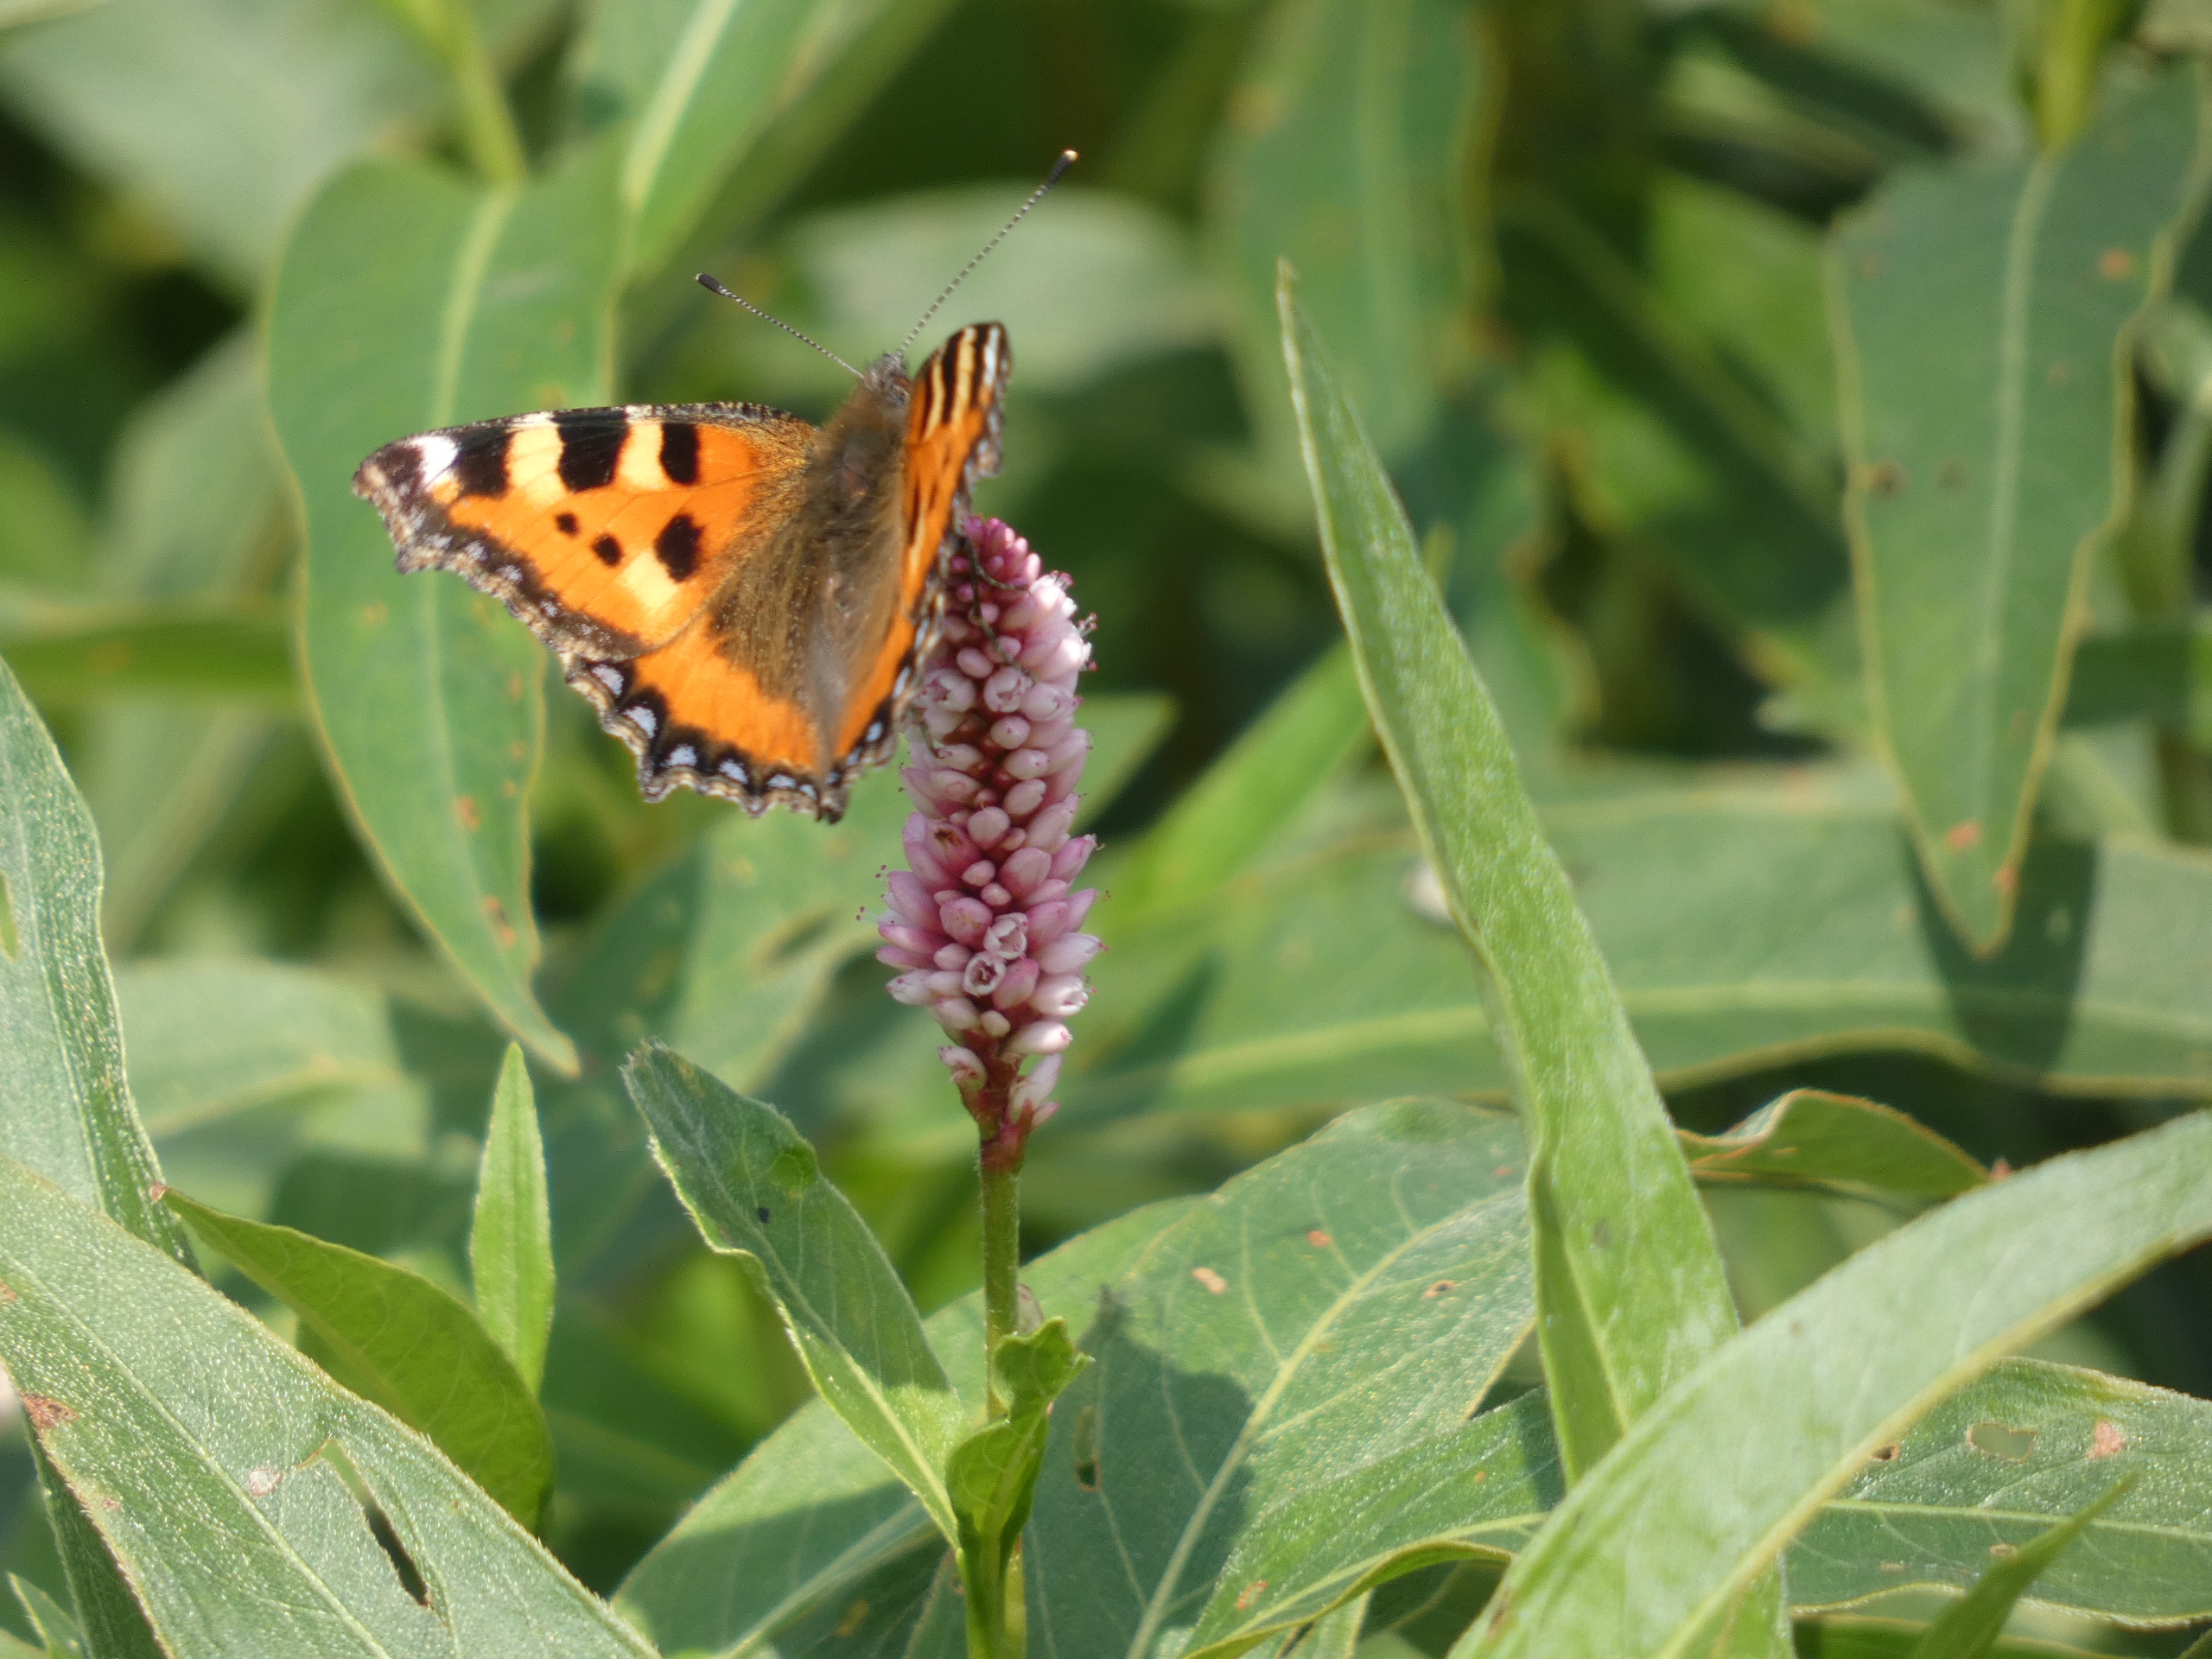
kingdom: Animalia
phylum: Arthropoda
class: Insecta
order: Lepidoptera
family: Nymphalidae
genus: Aglais
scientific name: Aglais urticae
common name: Nældens takvinge
